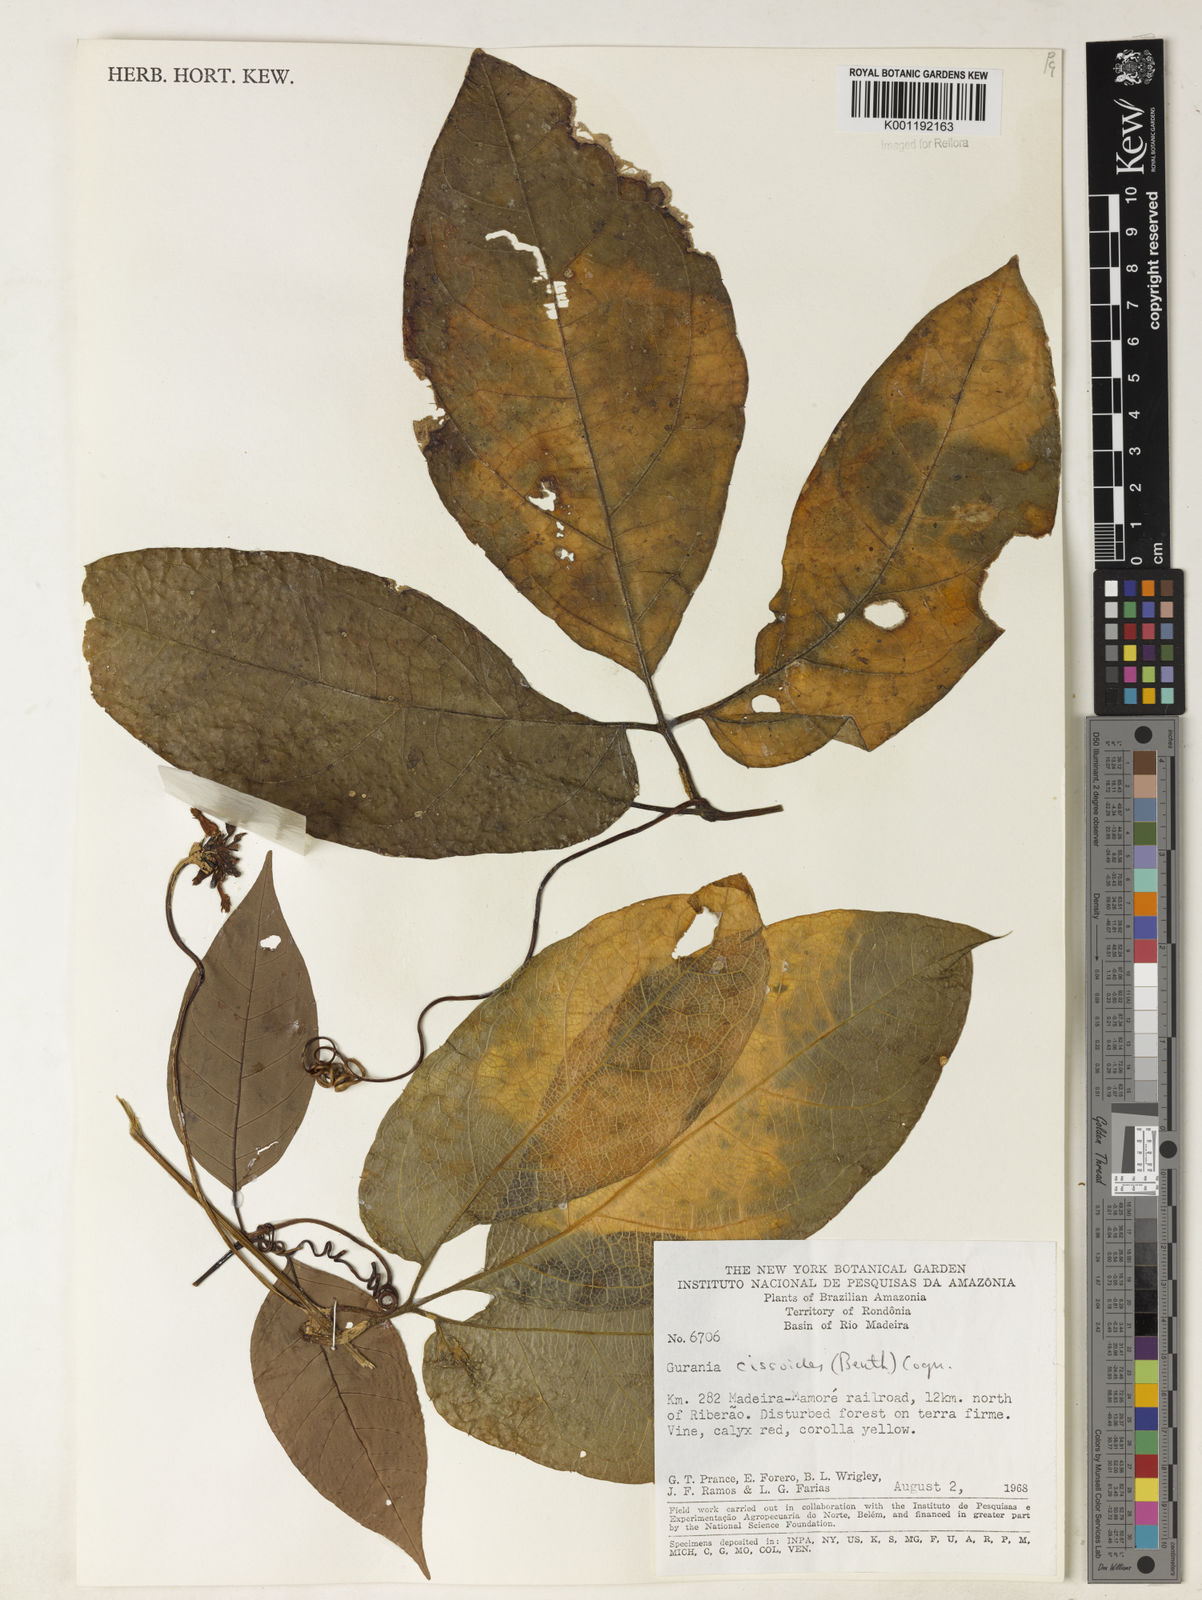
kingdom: Plantae
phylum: Tracheophyta
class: Magnoliopsida
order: Cucurbitales
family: Cucurbitaceae
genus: Gurania
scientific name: Gurania bignoniacea
